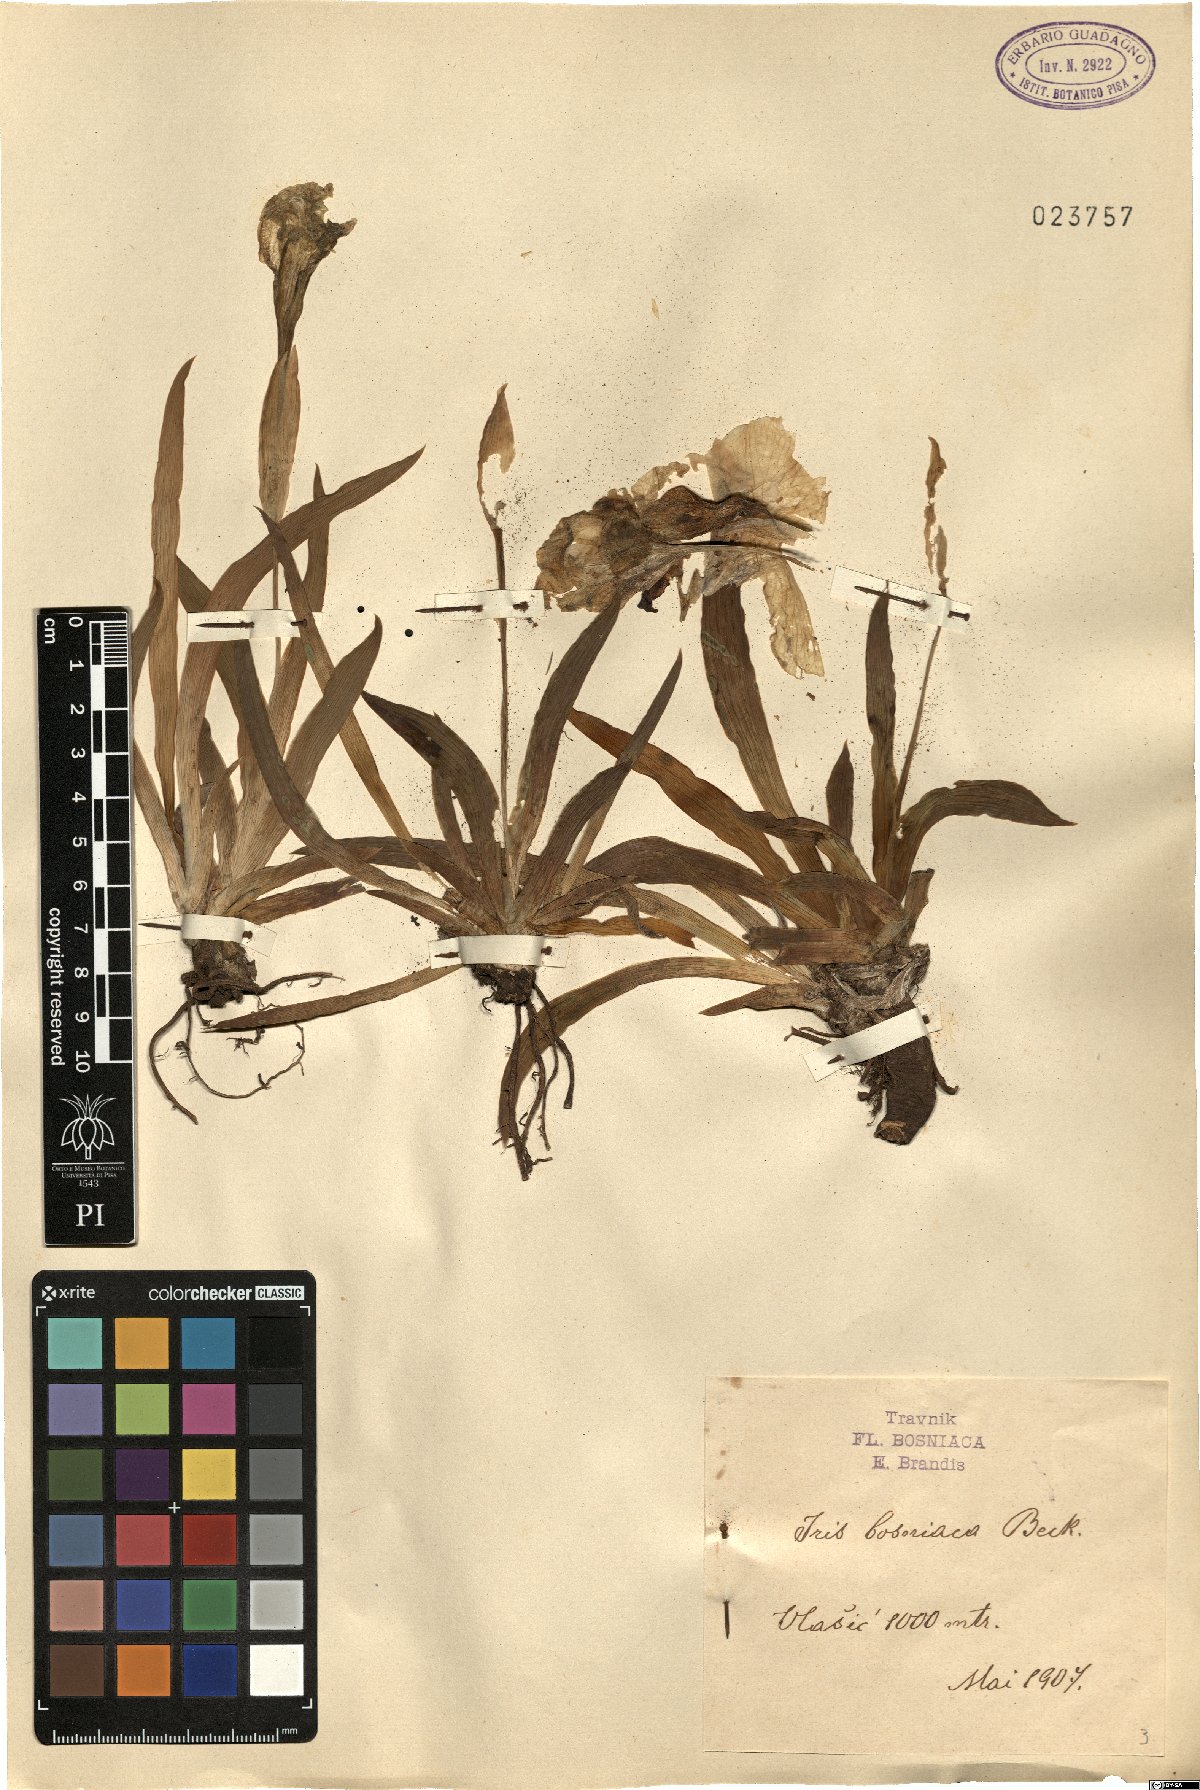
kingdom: Plantae
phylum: Tracheophyta
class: Liliopsida
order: Asparagales
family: Iridaceae
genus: Iris
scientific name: Iris bosniaca
